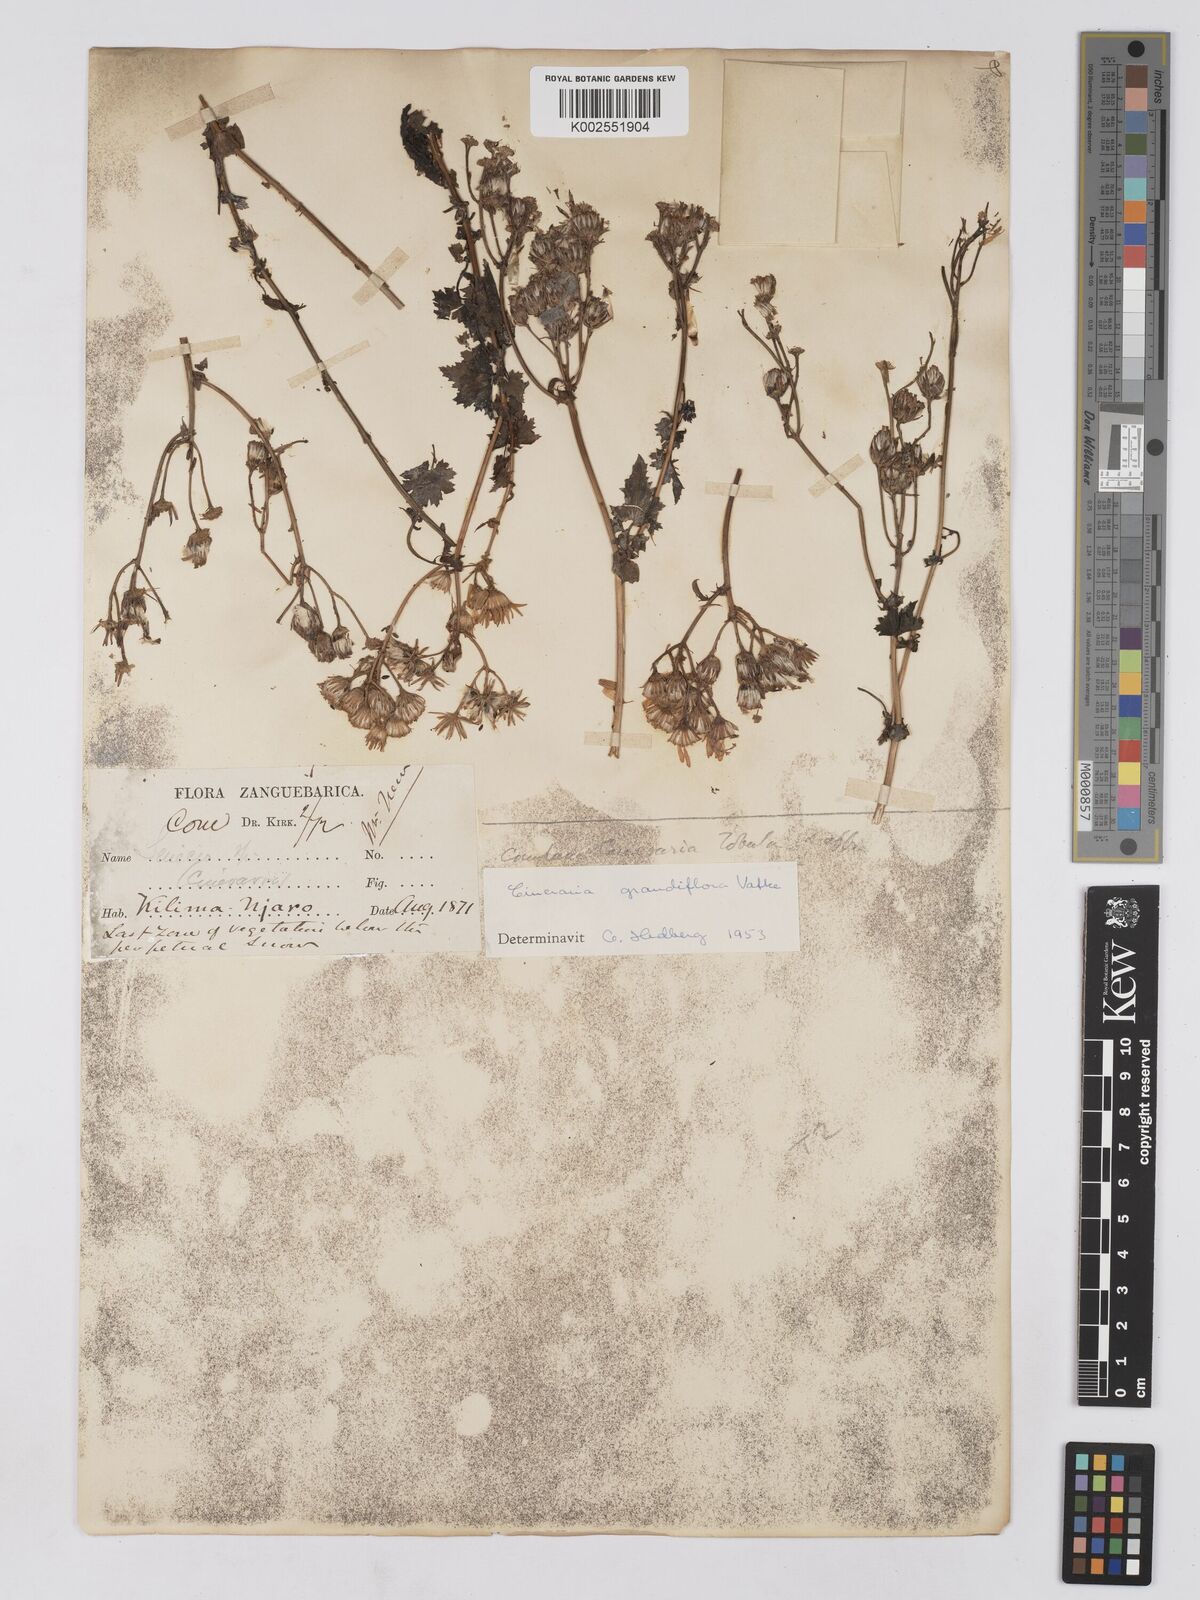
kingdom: Plantae
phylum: Tracheophyta
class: Magnoliopsida
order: Asterales
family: Asteraceae
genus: Cineraria
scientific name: Cineraria deltoidea
